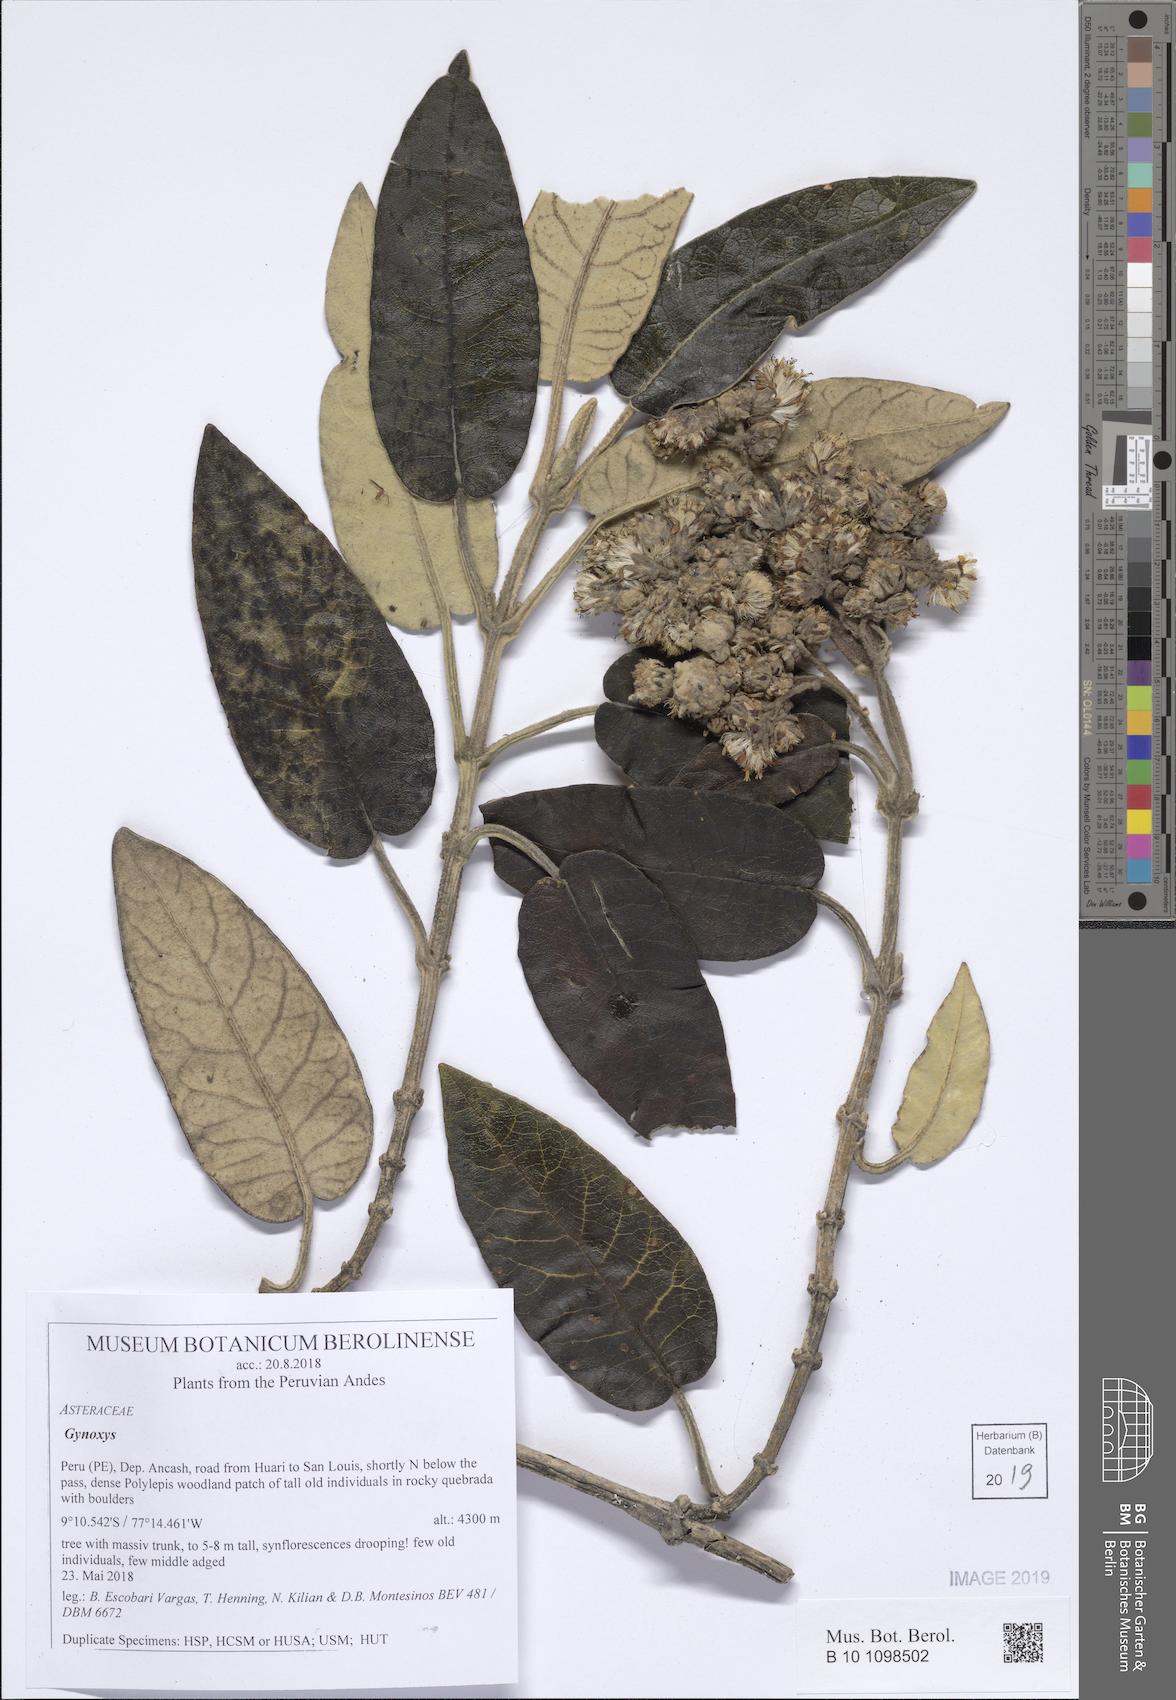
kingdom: Plantae
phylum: Tracheophyta
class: Magnoliopsida
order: Asterales
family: Asteraceae
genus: Gynoxys
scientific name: Gynoxys
